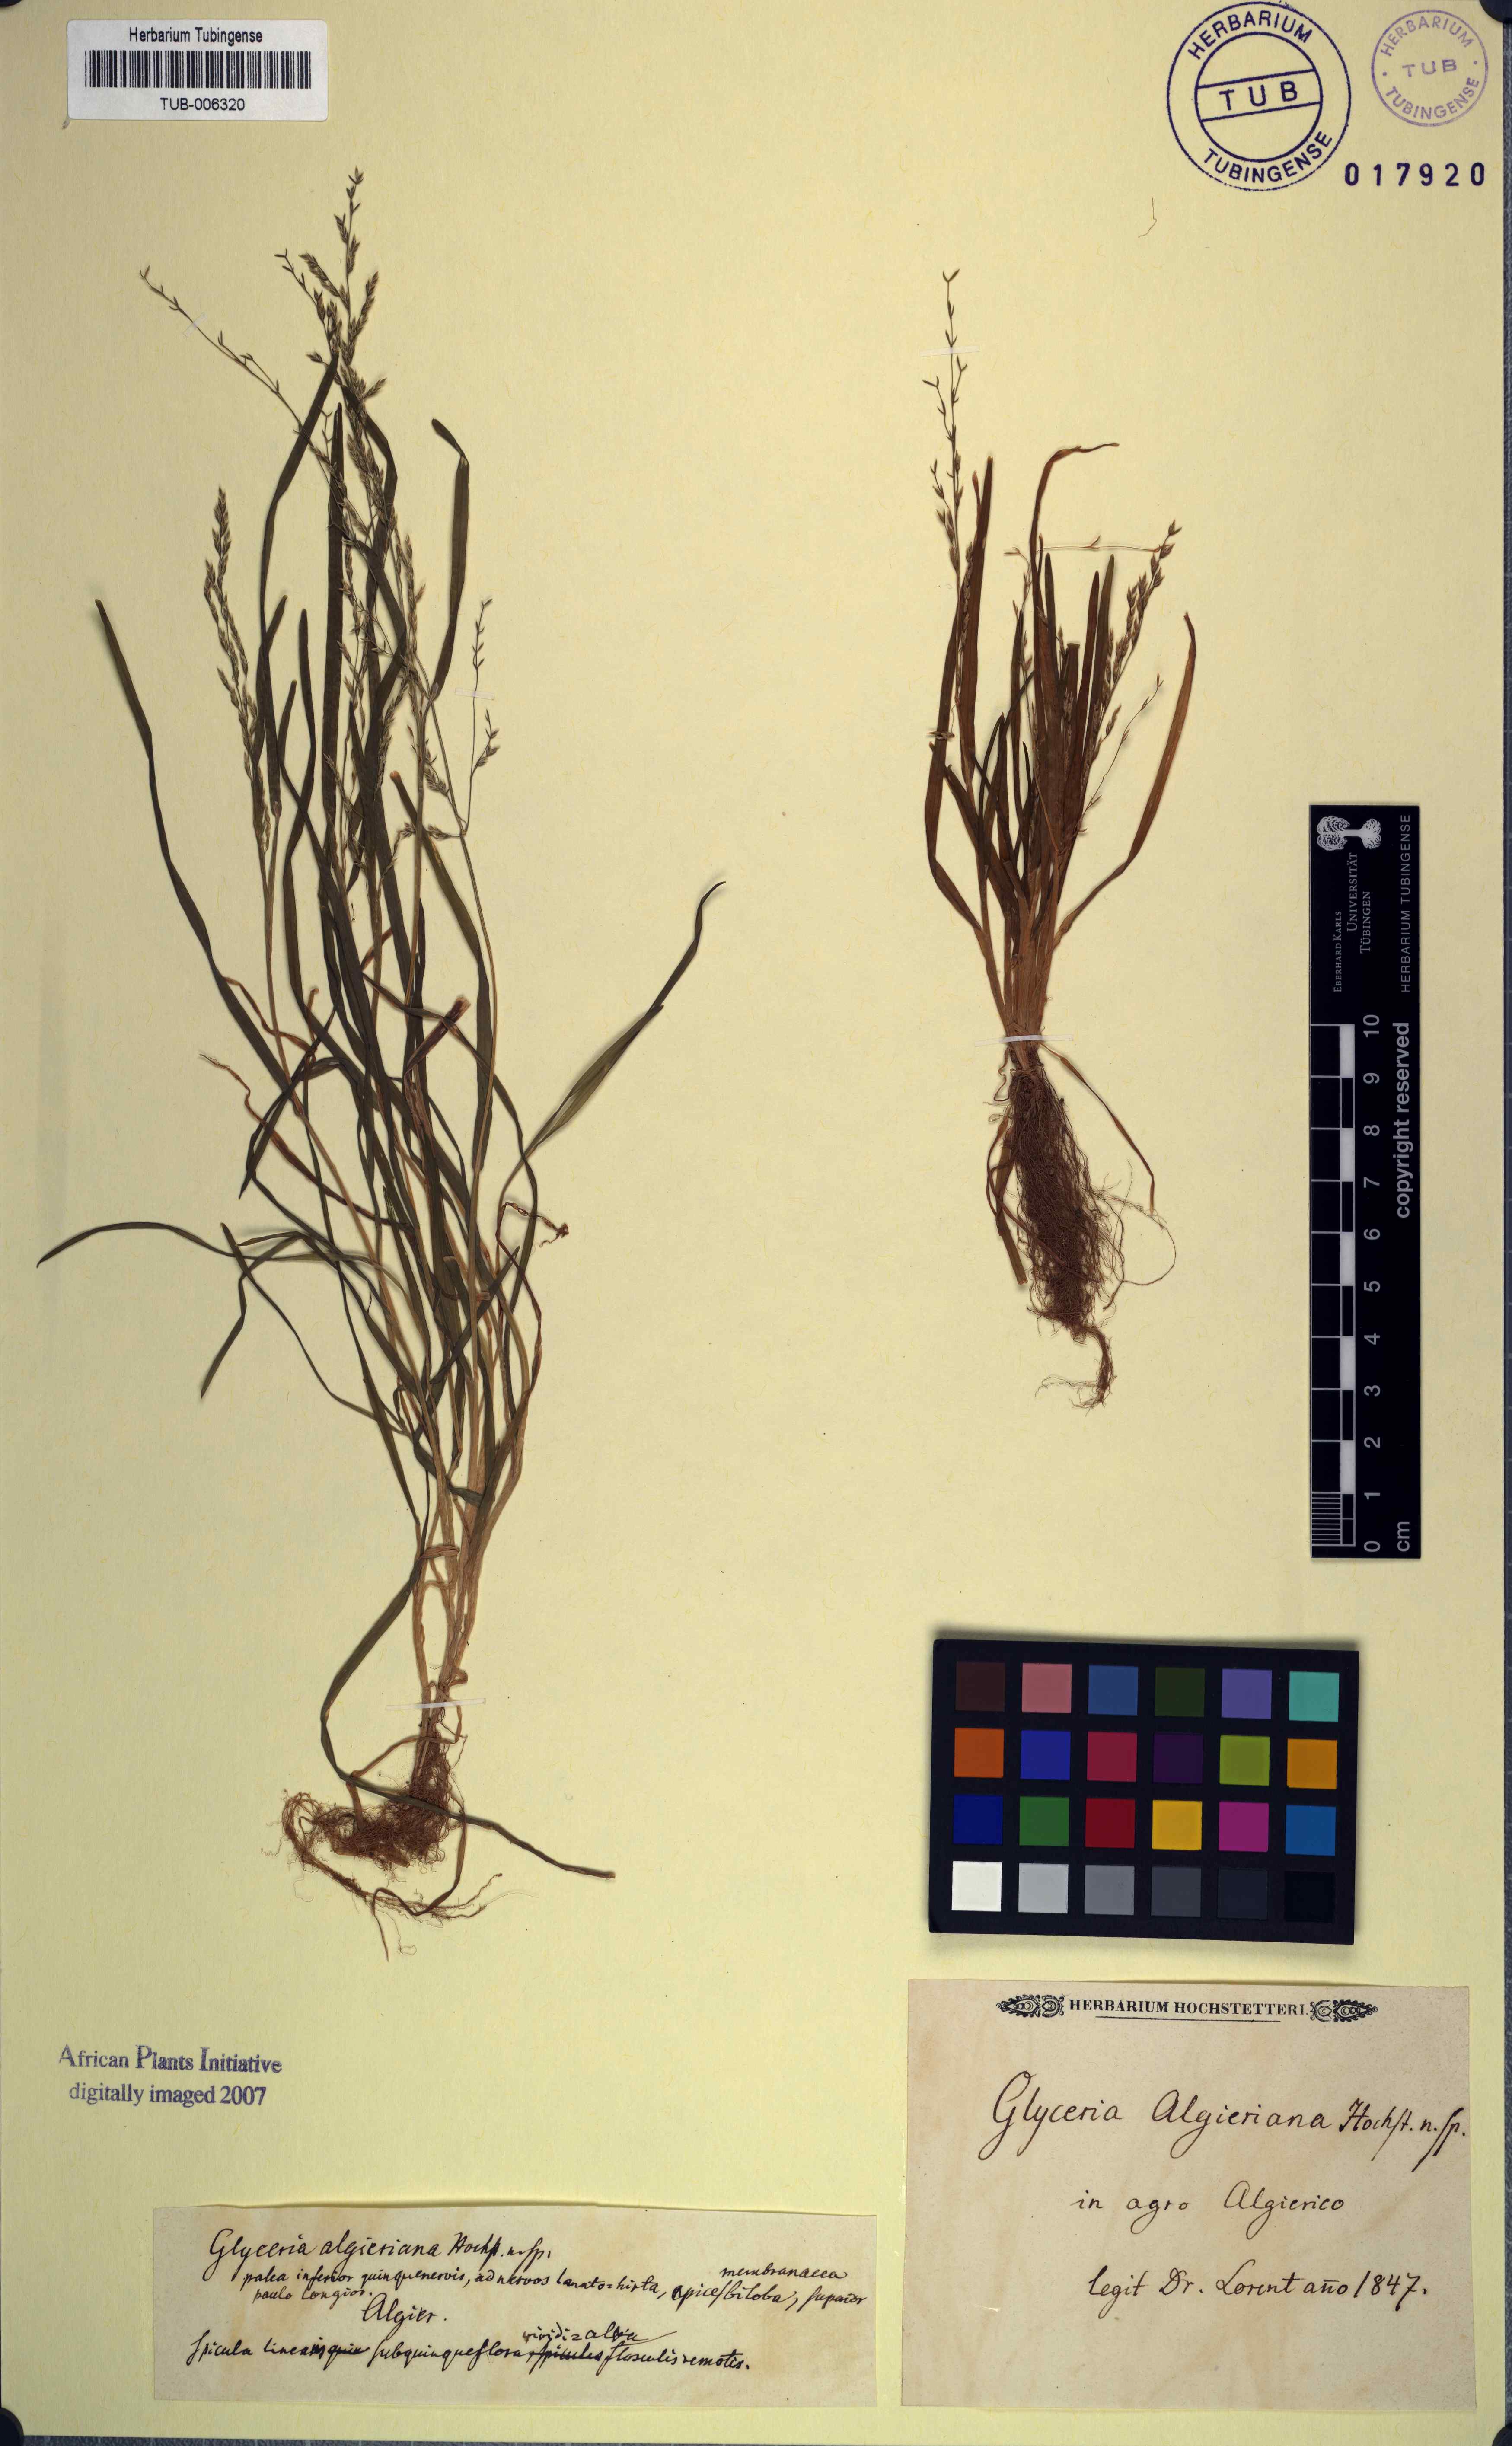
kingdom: Plantae
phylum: Tracheophyta
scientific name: Tracheophyta
